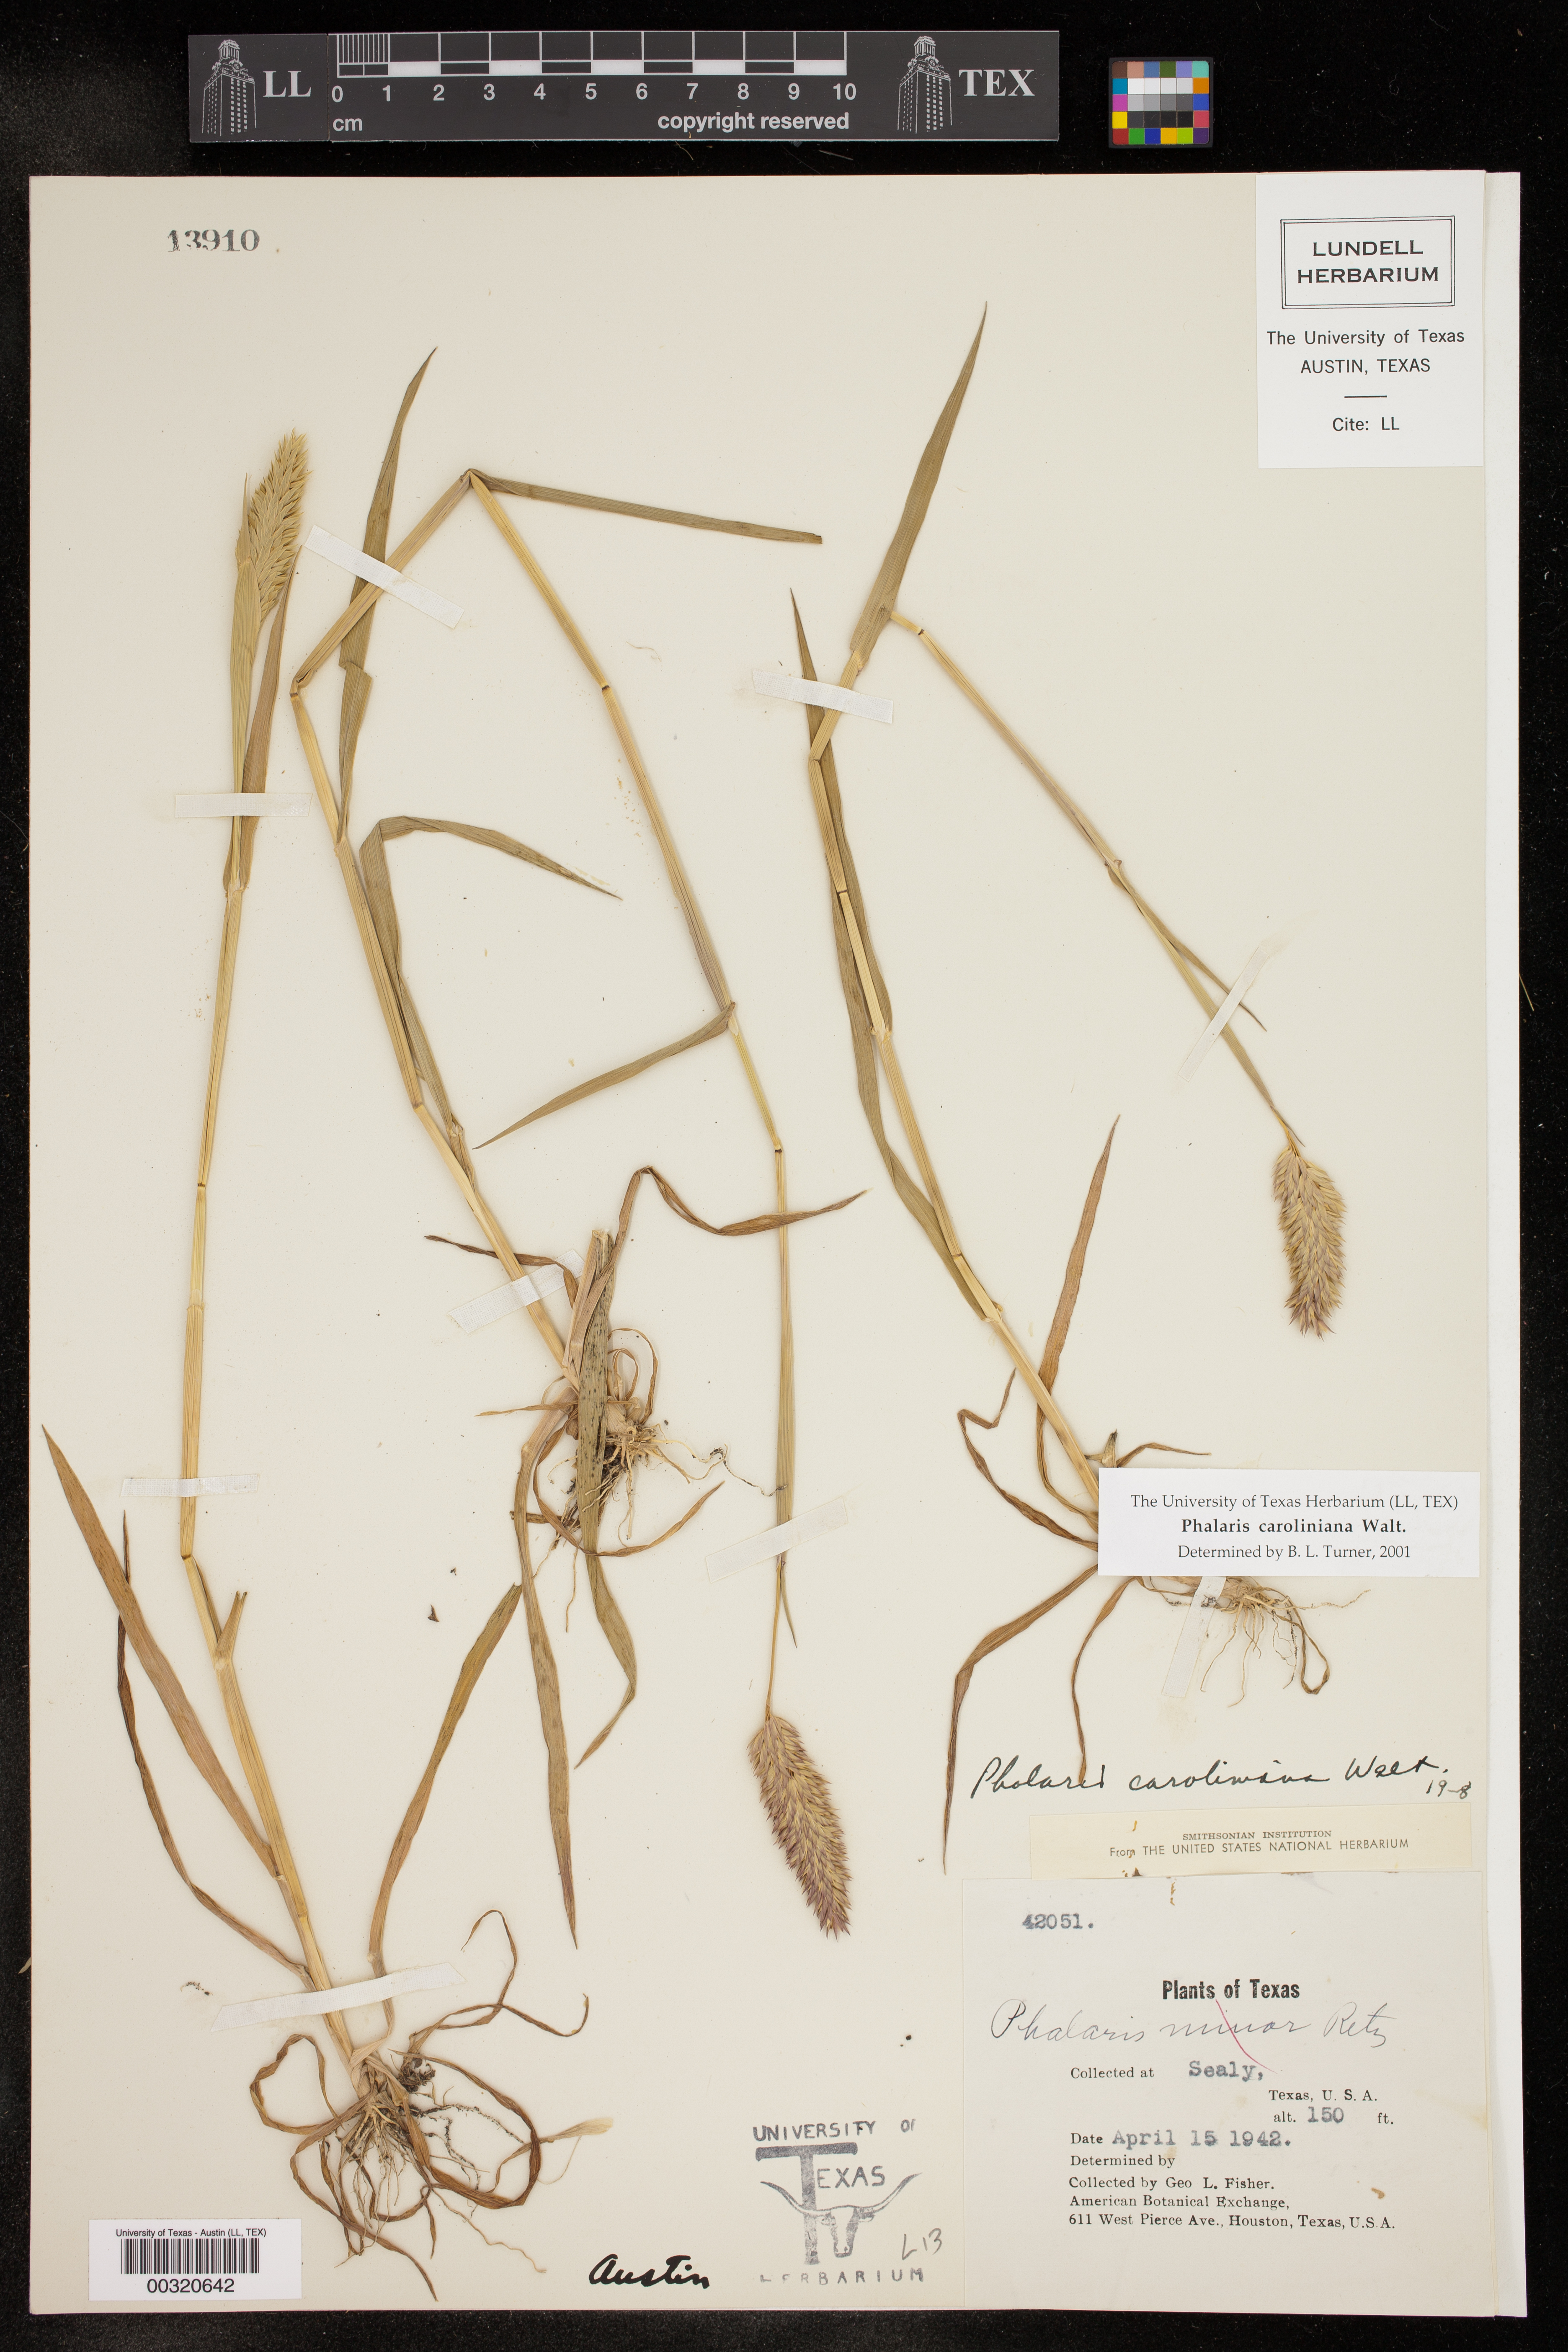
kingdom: Plantae
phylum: Tracheophyta
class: Liliopsida
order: Poales
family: Poaceae
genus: Phalaris
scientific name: Phalaris caroliniana
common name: May grass
